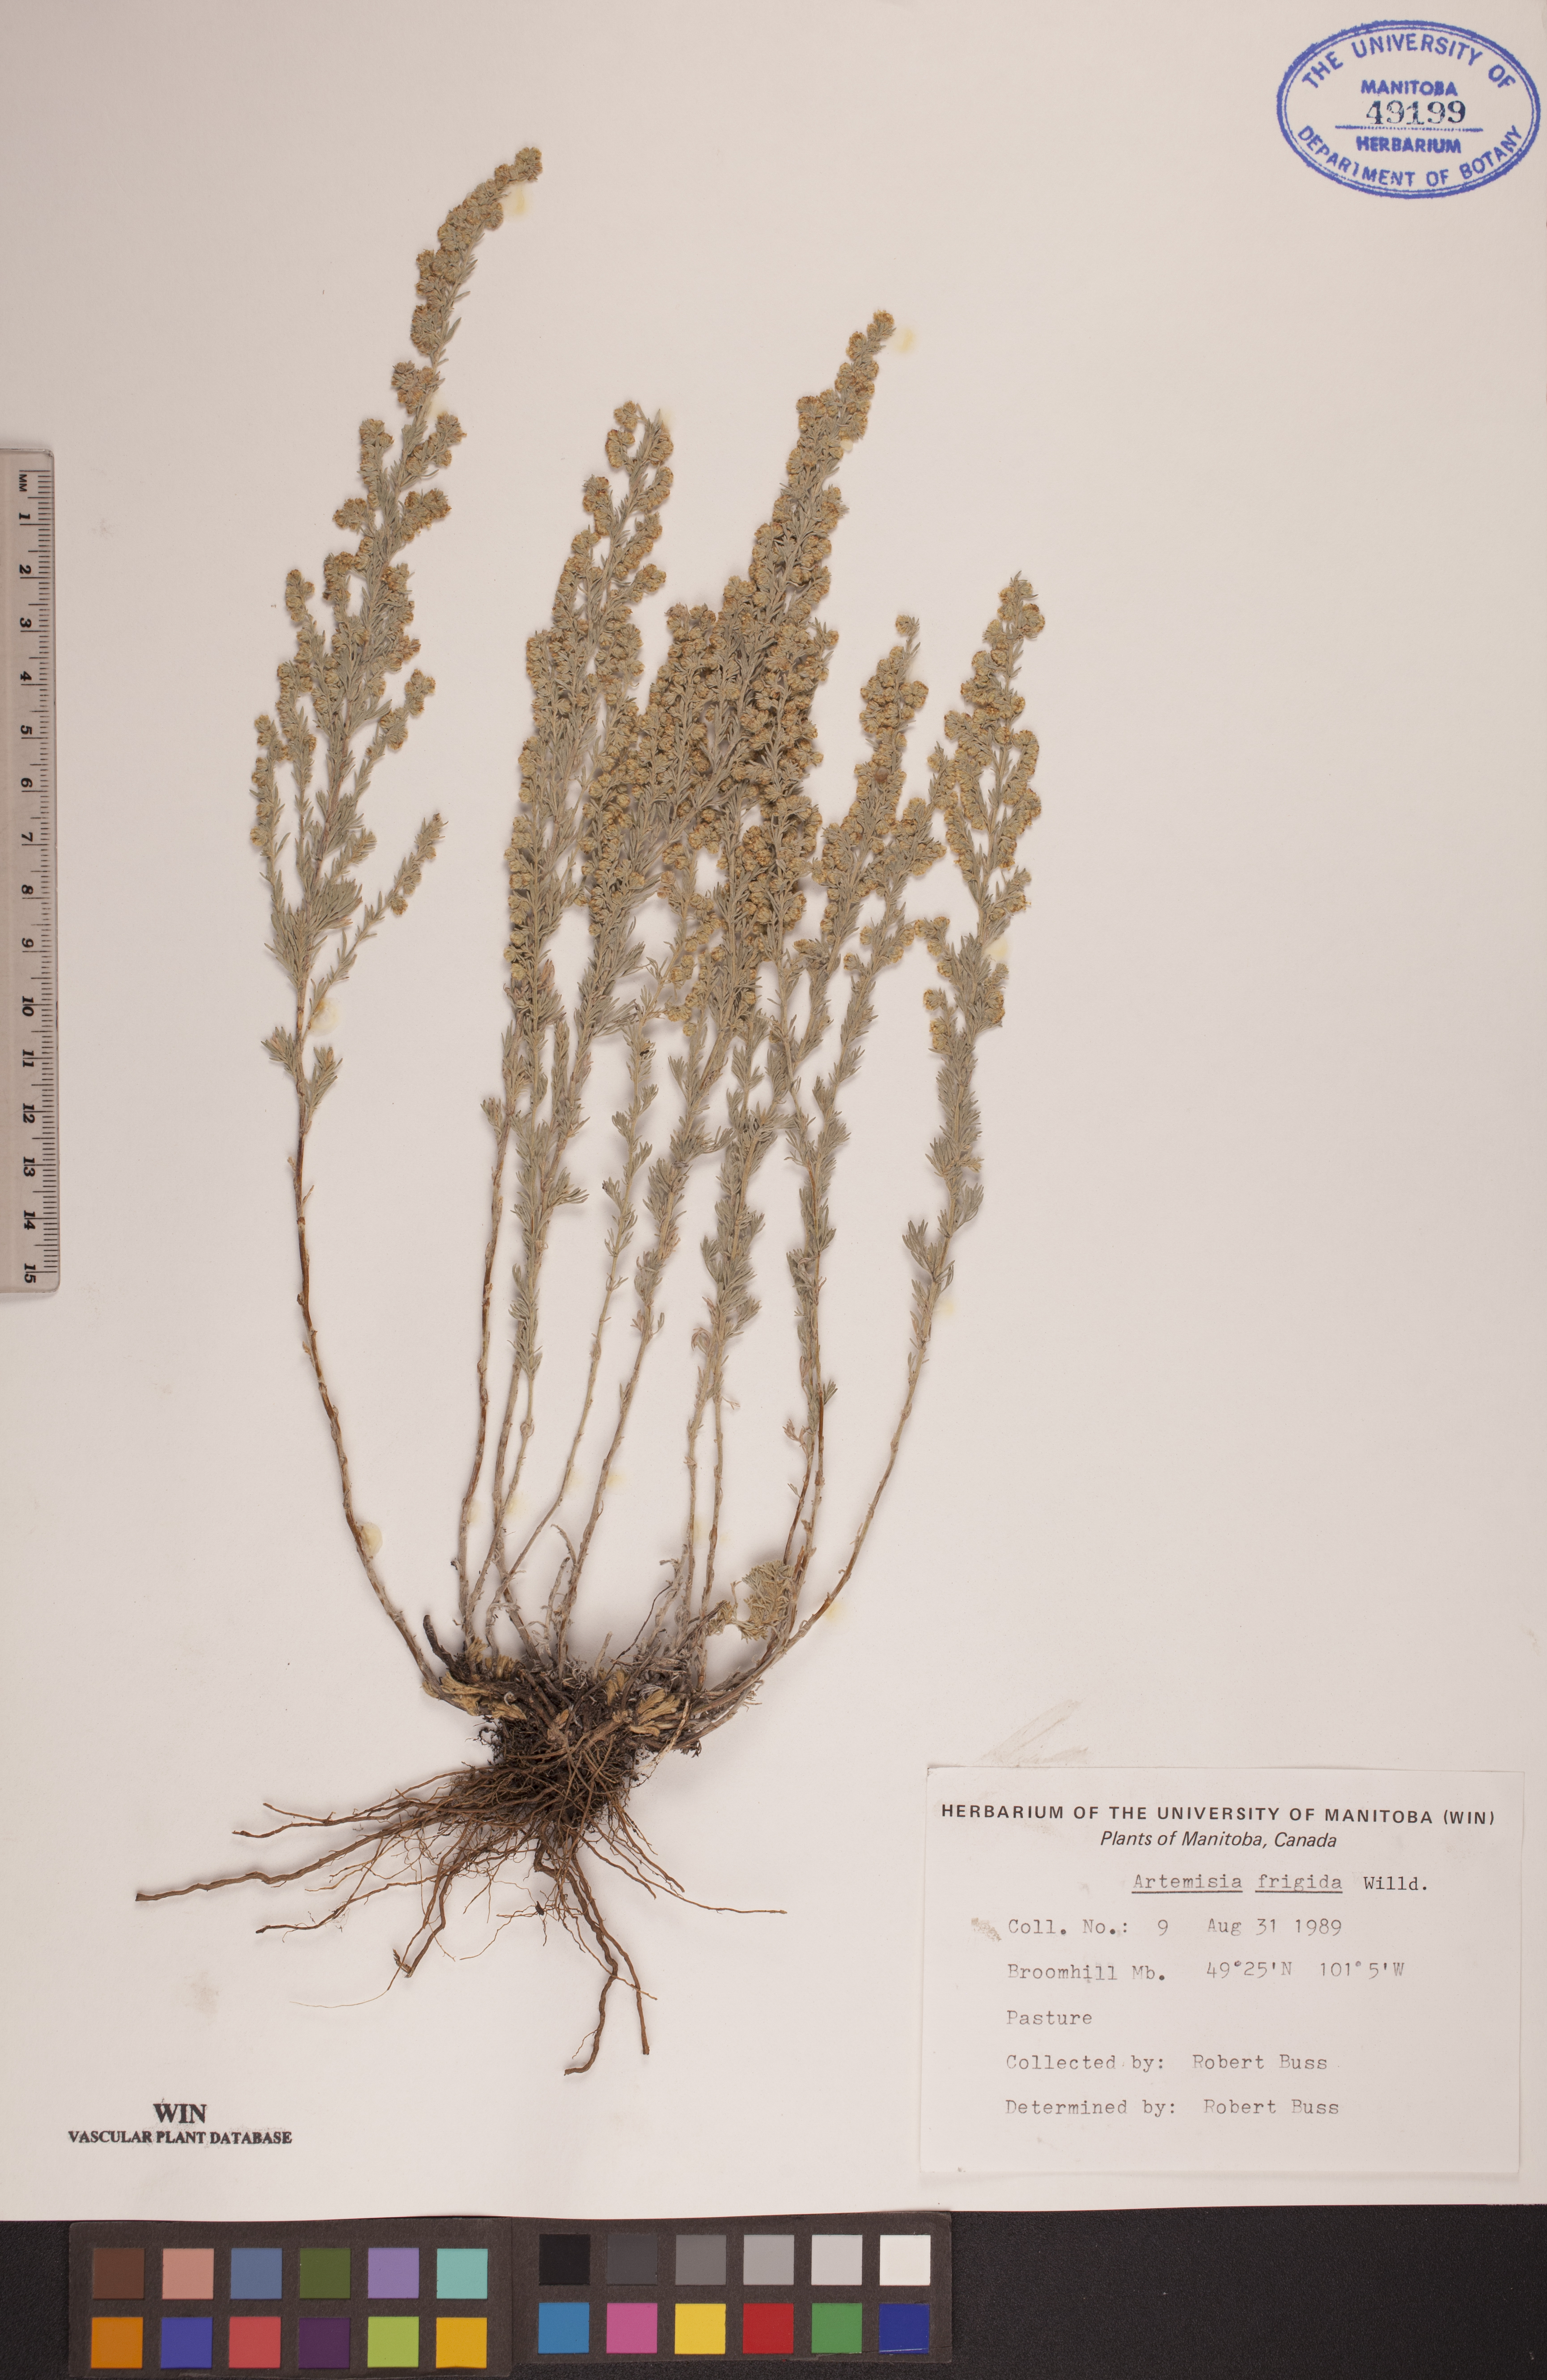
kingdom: Plantae
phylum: Tracheophyta
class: Magnoliopsida
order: Asterales
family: Asteraceae
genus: Artemisia
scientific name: Artemisia frigida
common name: Prairie sagewort
